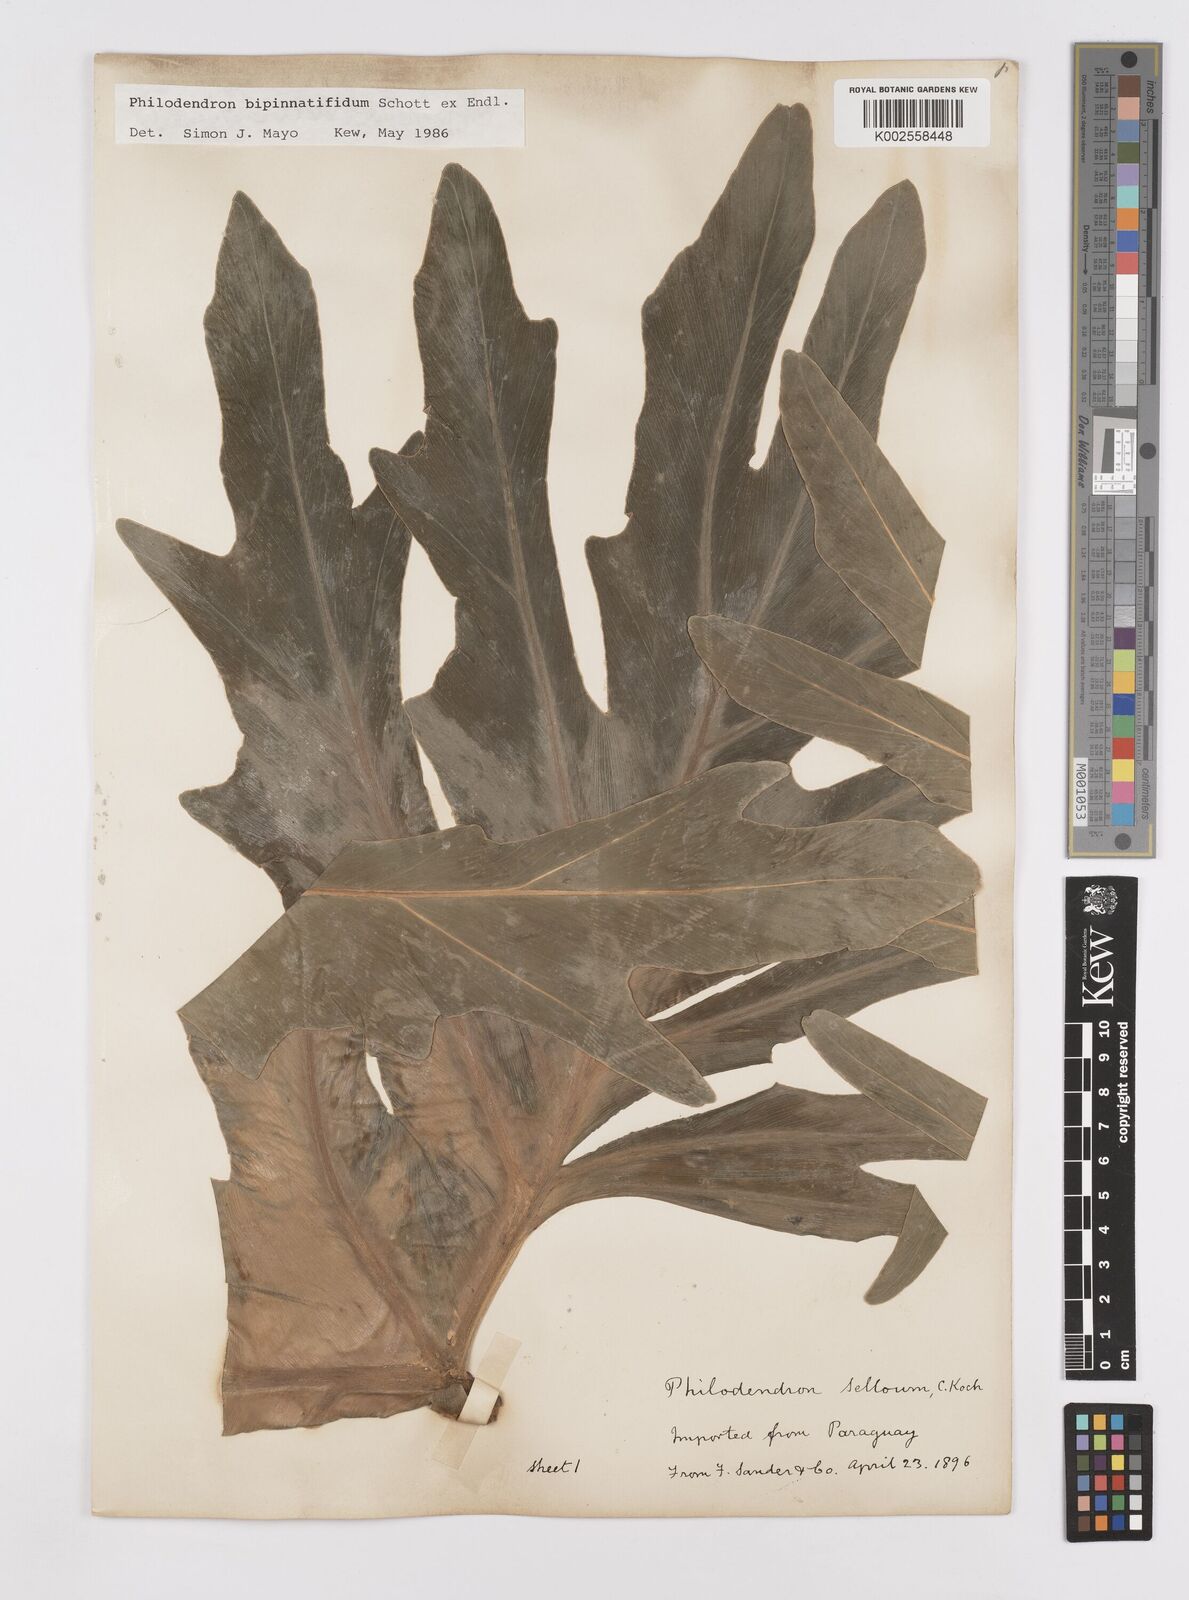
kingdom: Plantae
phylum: Tracheophyta
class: Liliopsida
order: Alismatales
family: Araceae
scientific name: Araceae
